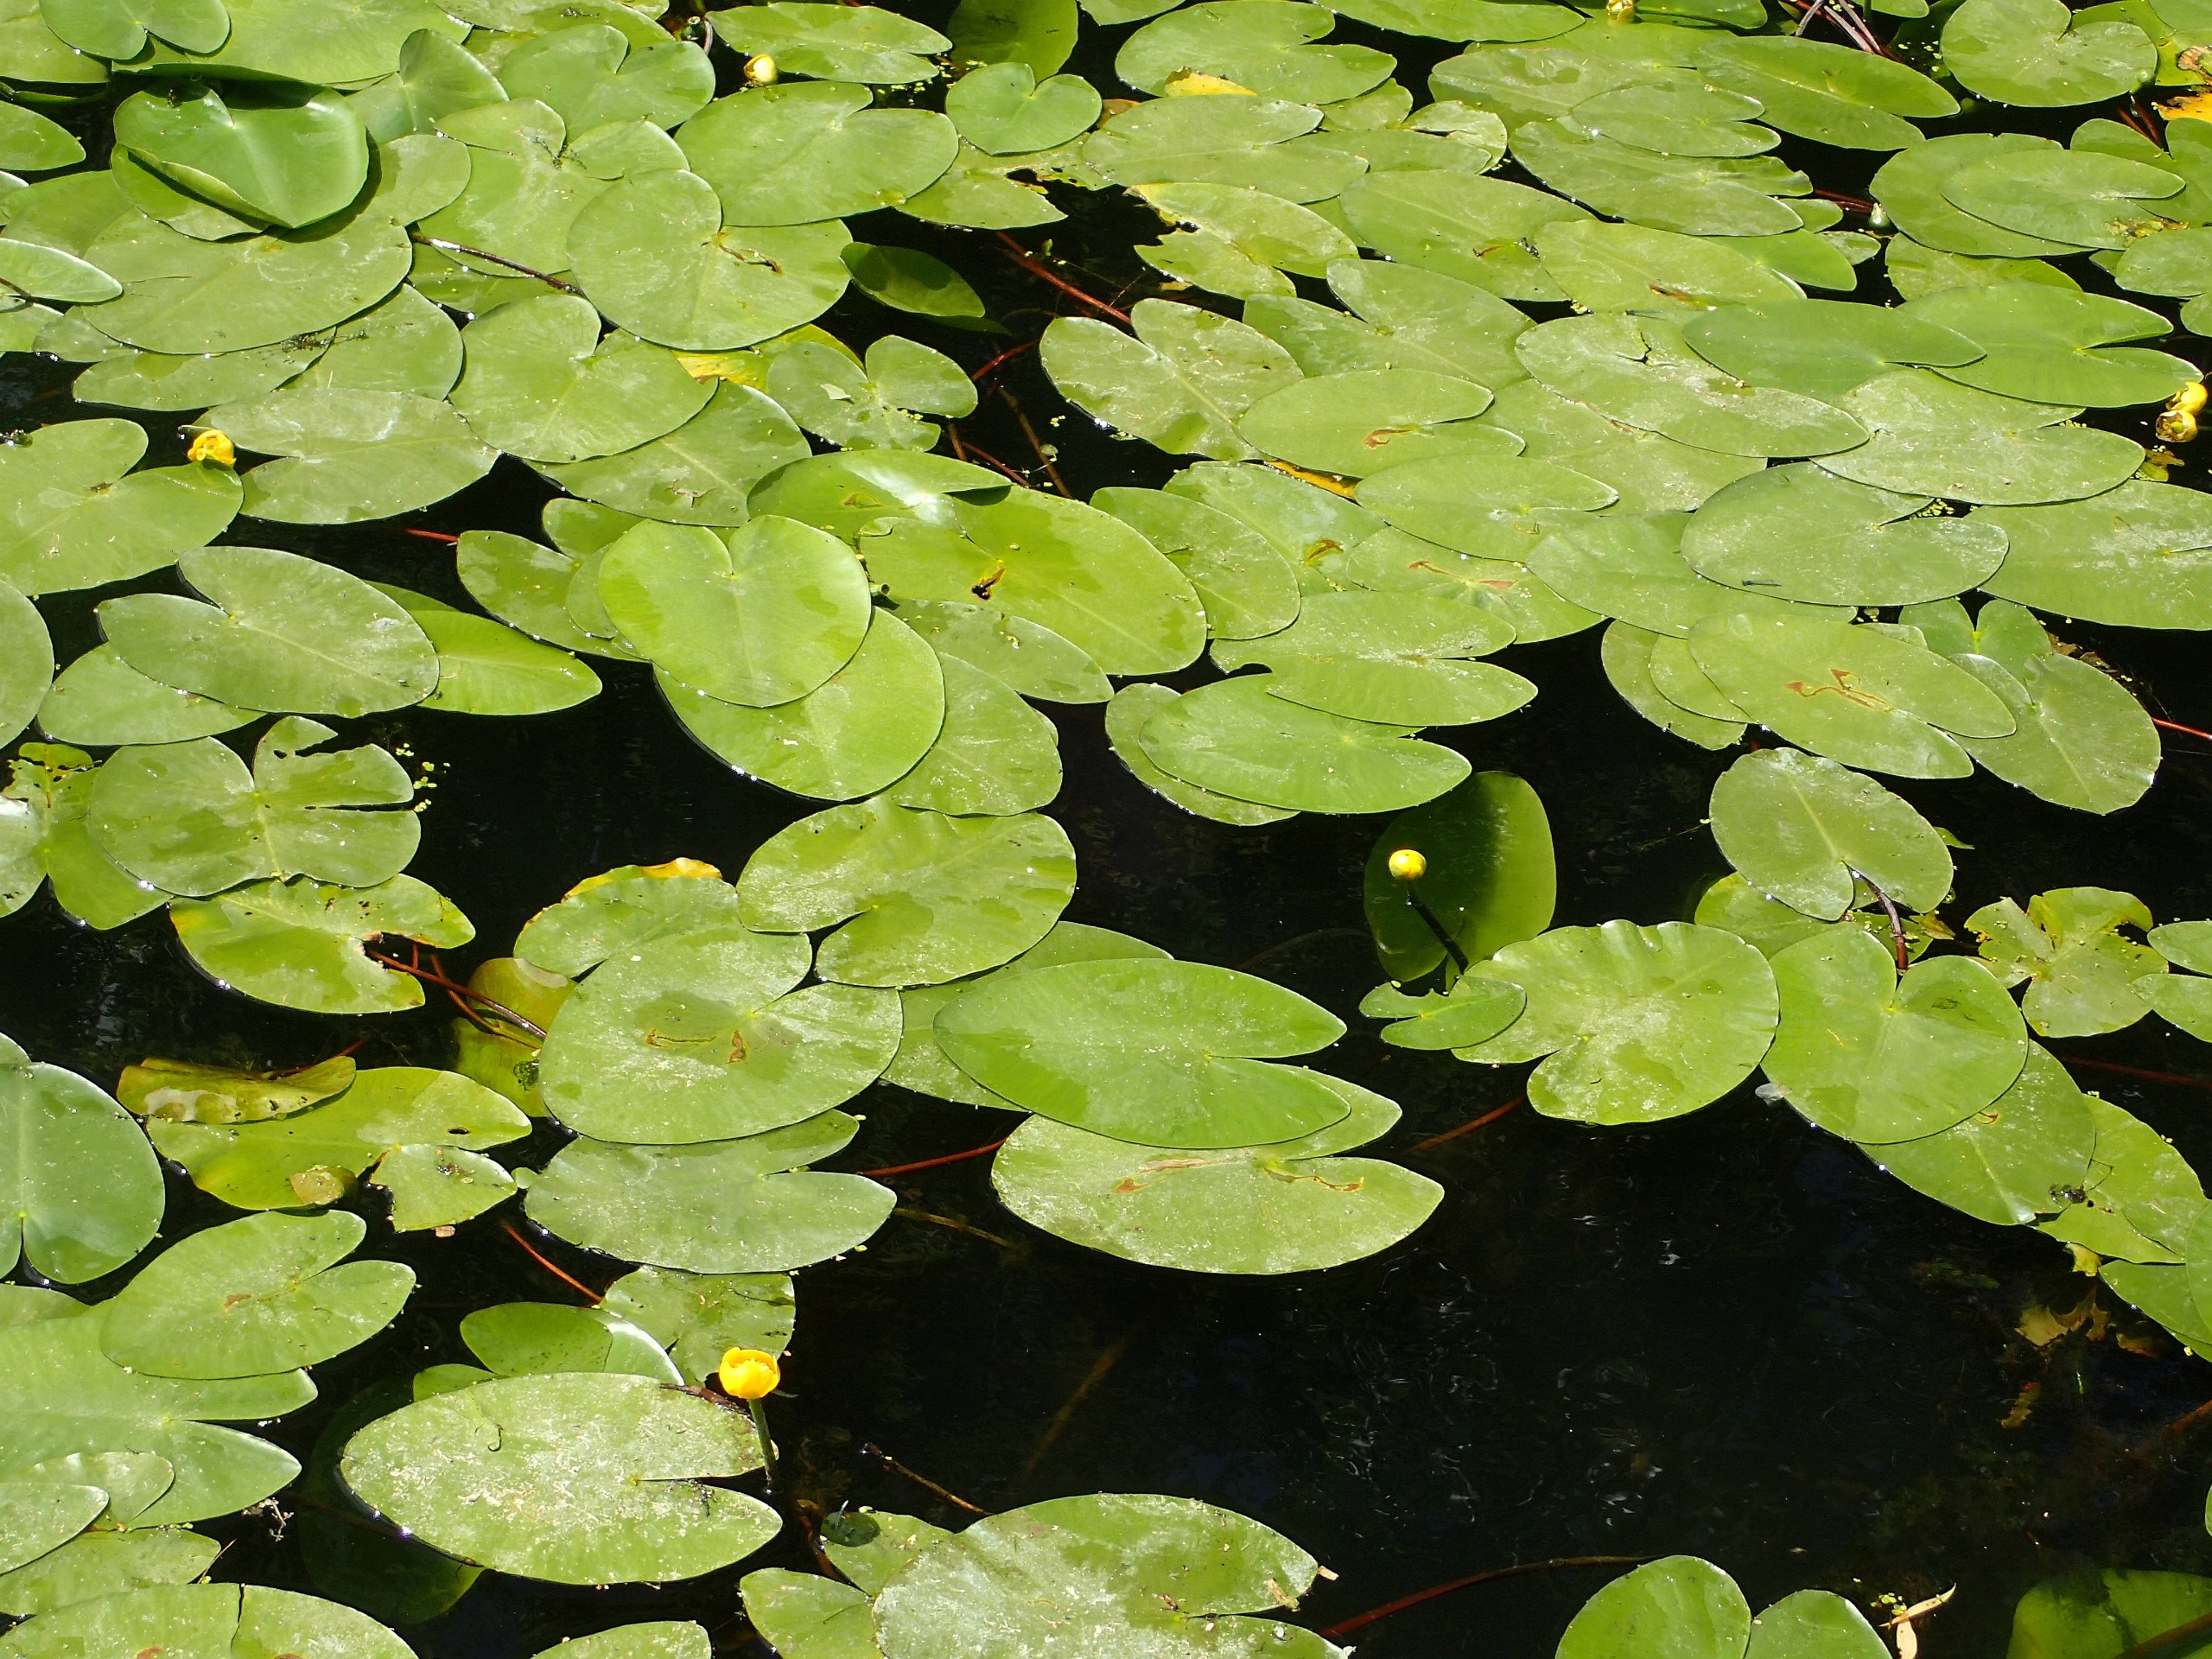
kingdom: Plantae
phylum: Tracheophyta
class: Magnoliopsida
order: Nymphaeales
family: Nymphaeaceae
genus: Nuphar
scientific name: Nuphar lutea
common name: Gul åkande
